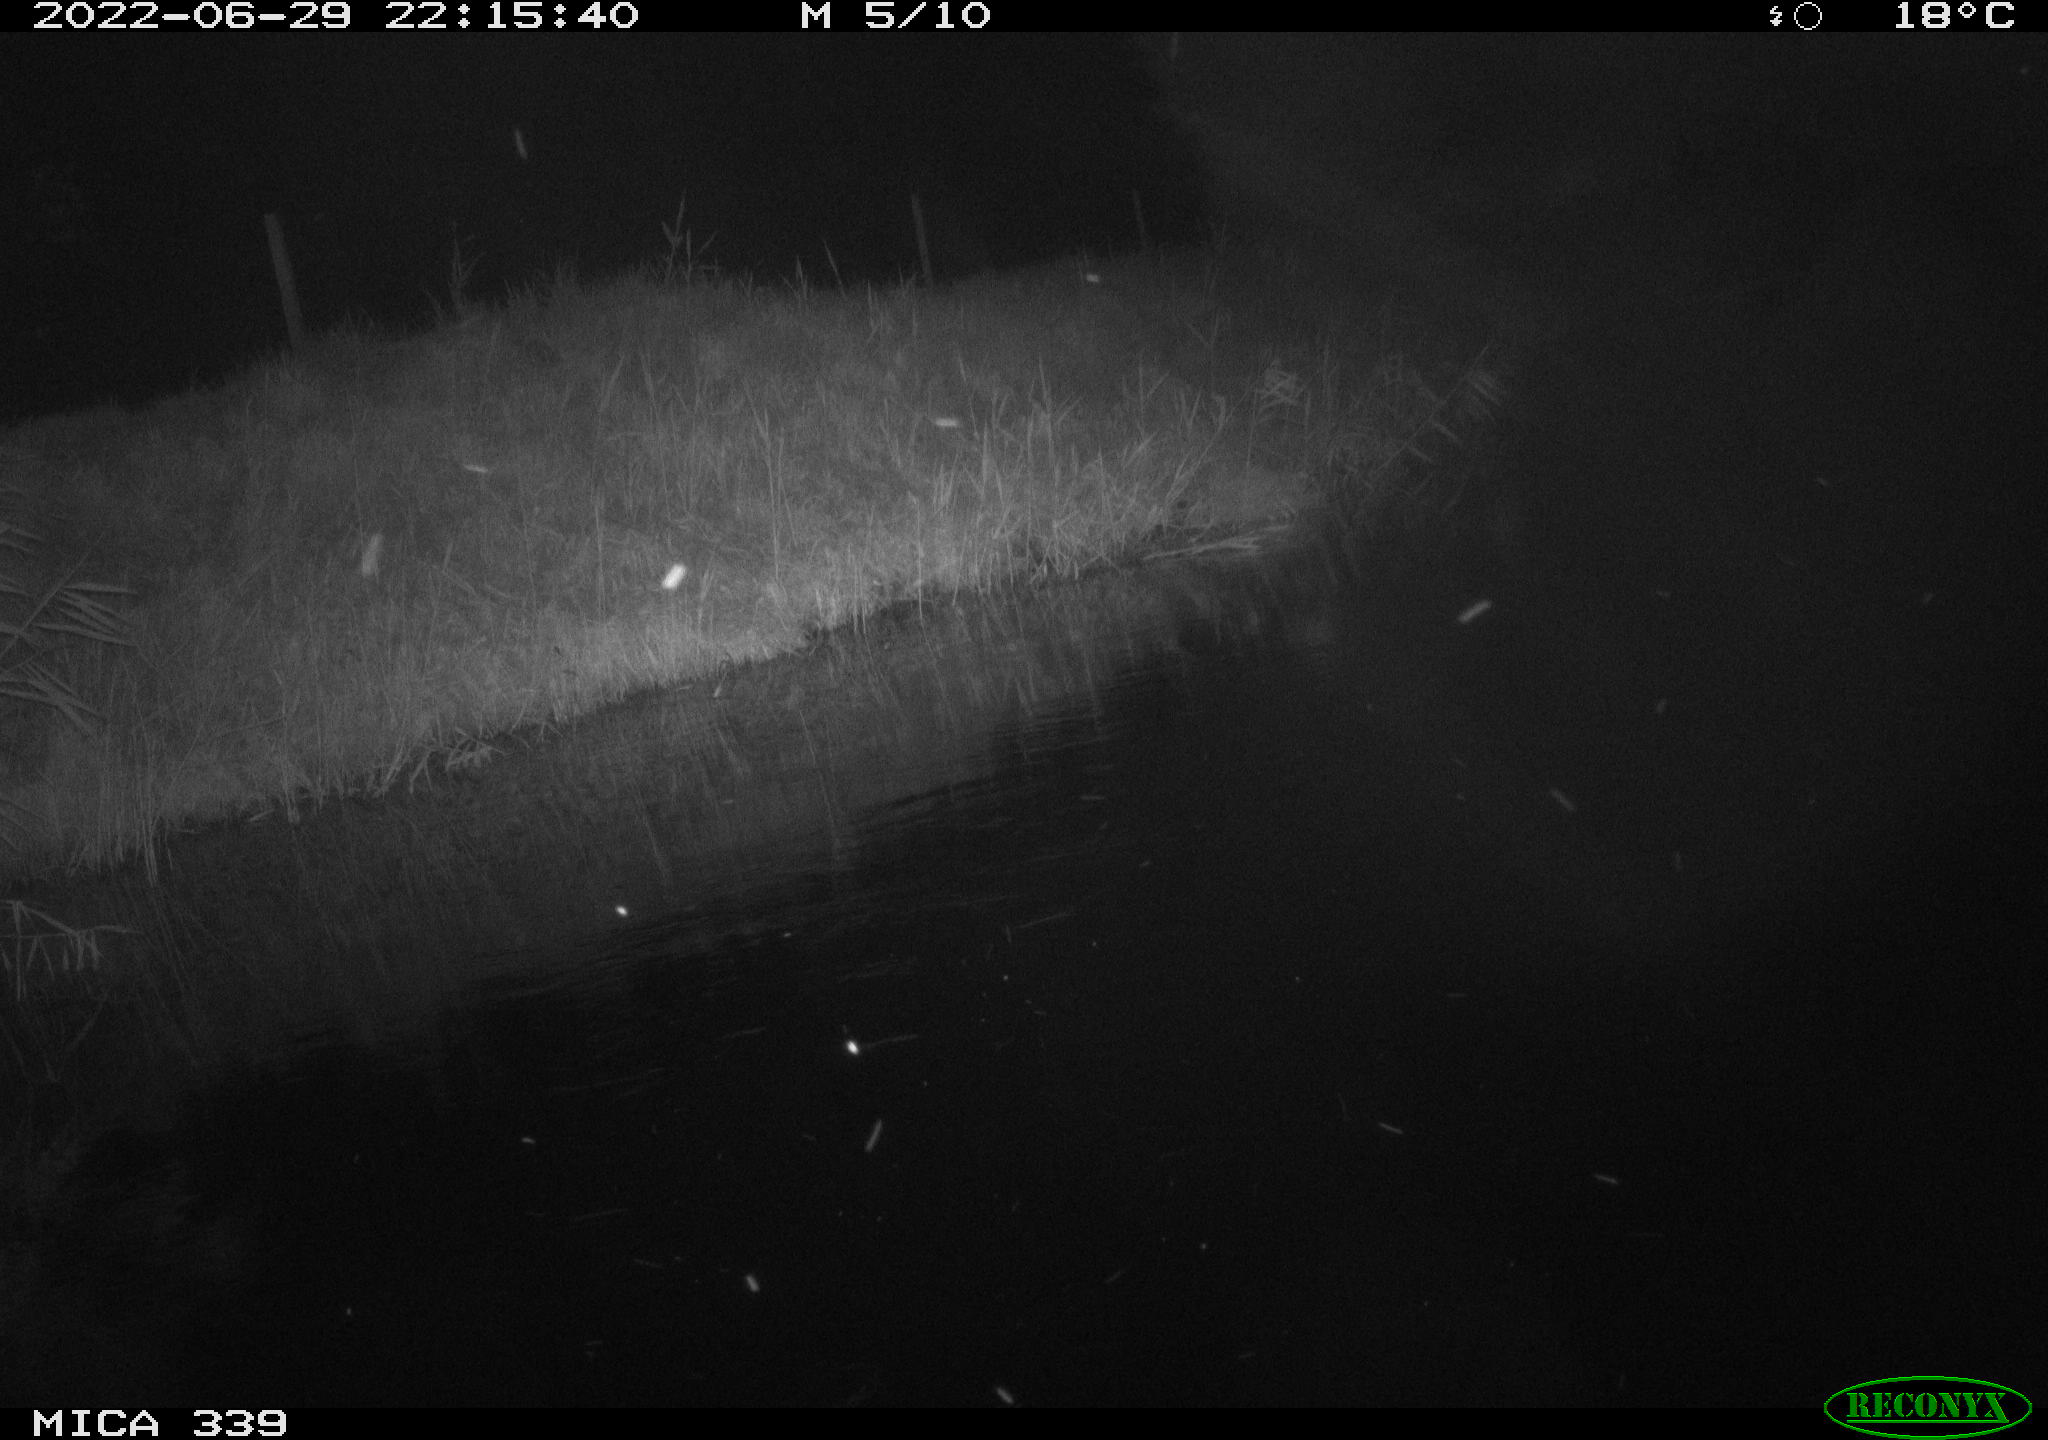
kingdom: Animalia
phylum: Chordata
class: Aves
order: Pelecaniformes
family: Ardeidae
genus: Ardea
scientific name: Ardea cinerea
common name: Grey heron
